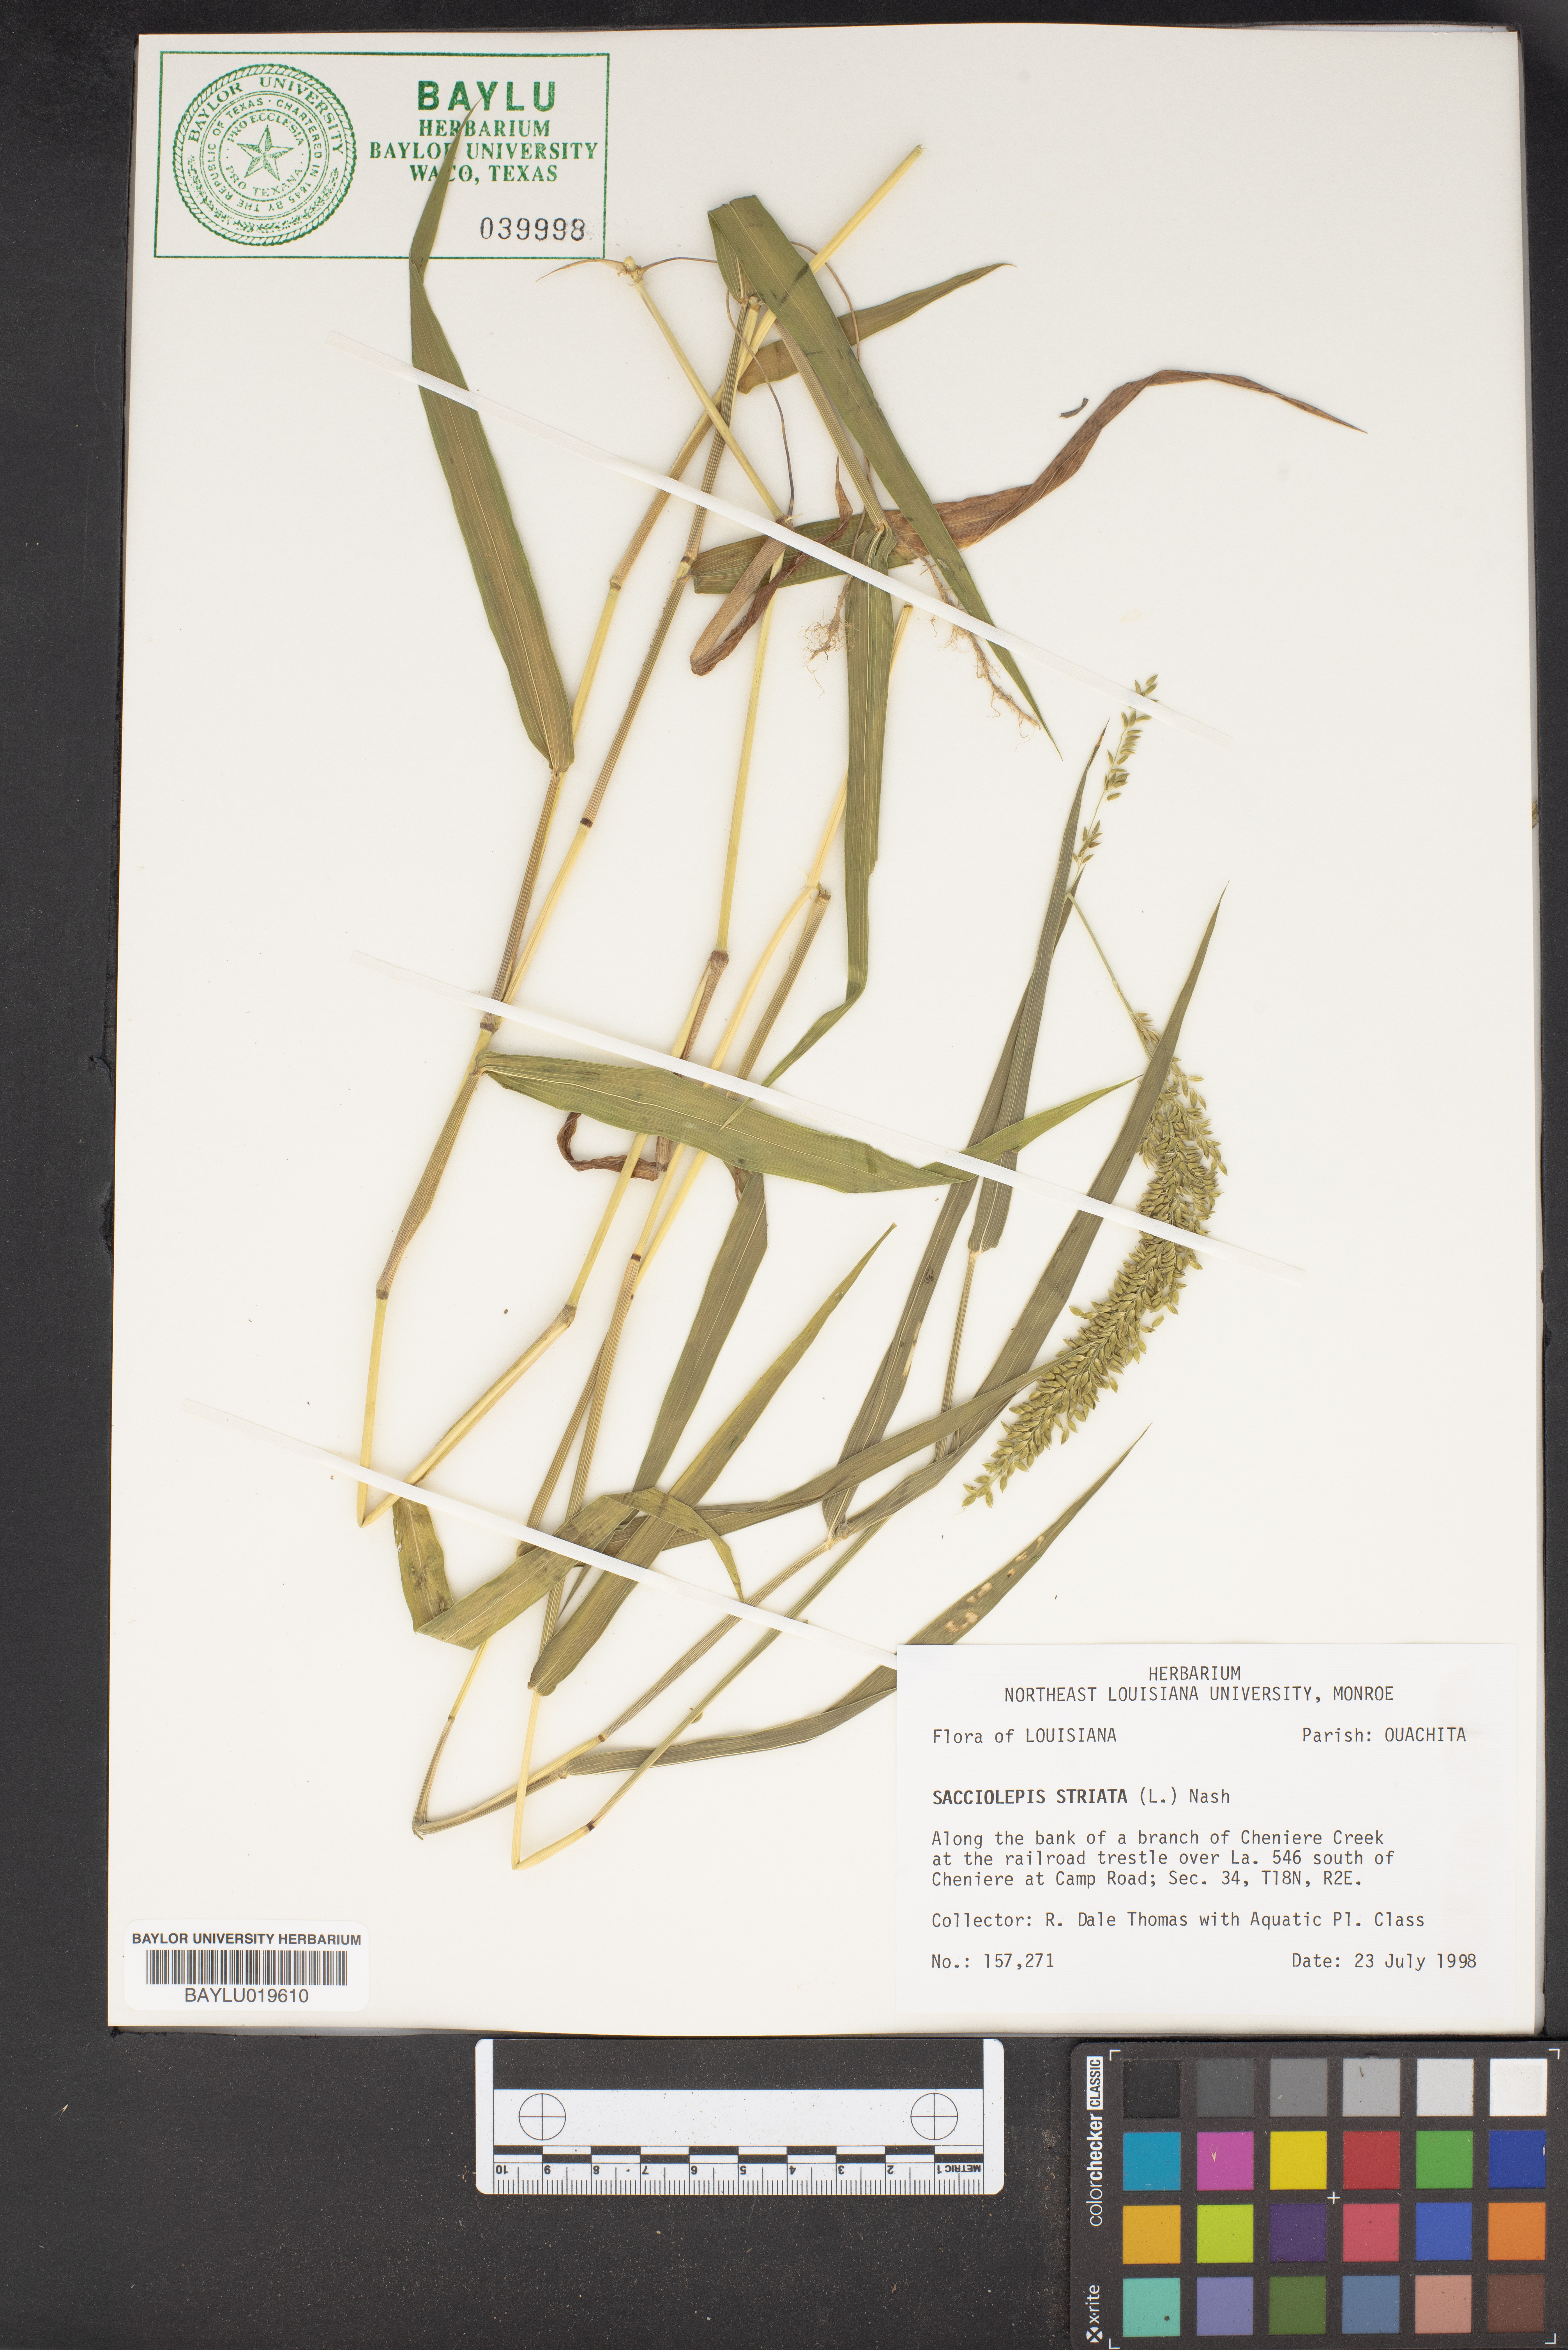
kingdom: Plantae
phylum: Tracheophyta
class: Liliopsida
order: Poales
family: Poaceae
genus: Sacciolepis
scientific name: Sacciolepis striata
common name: American cupscale
